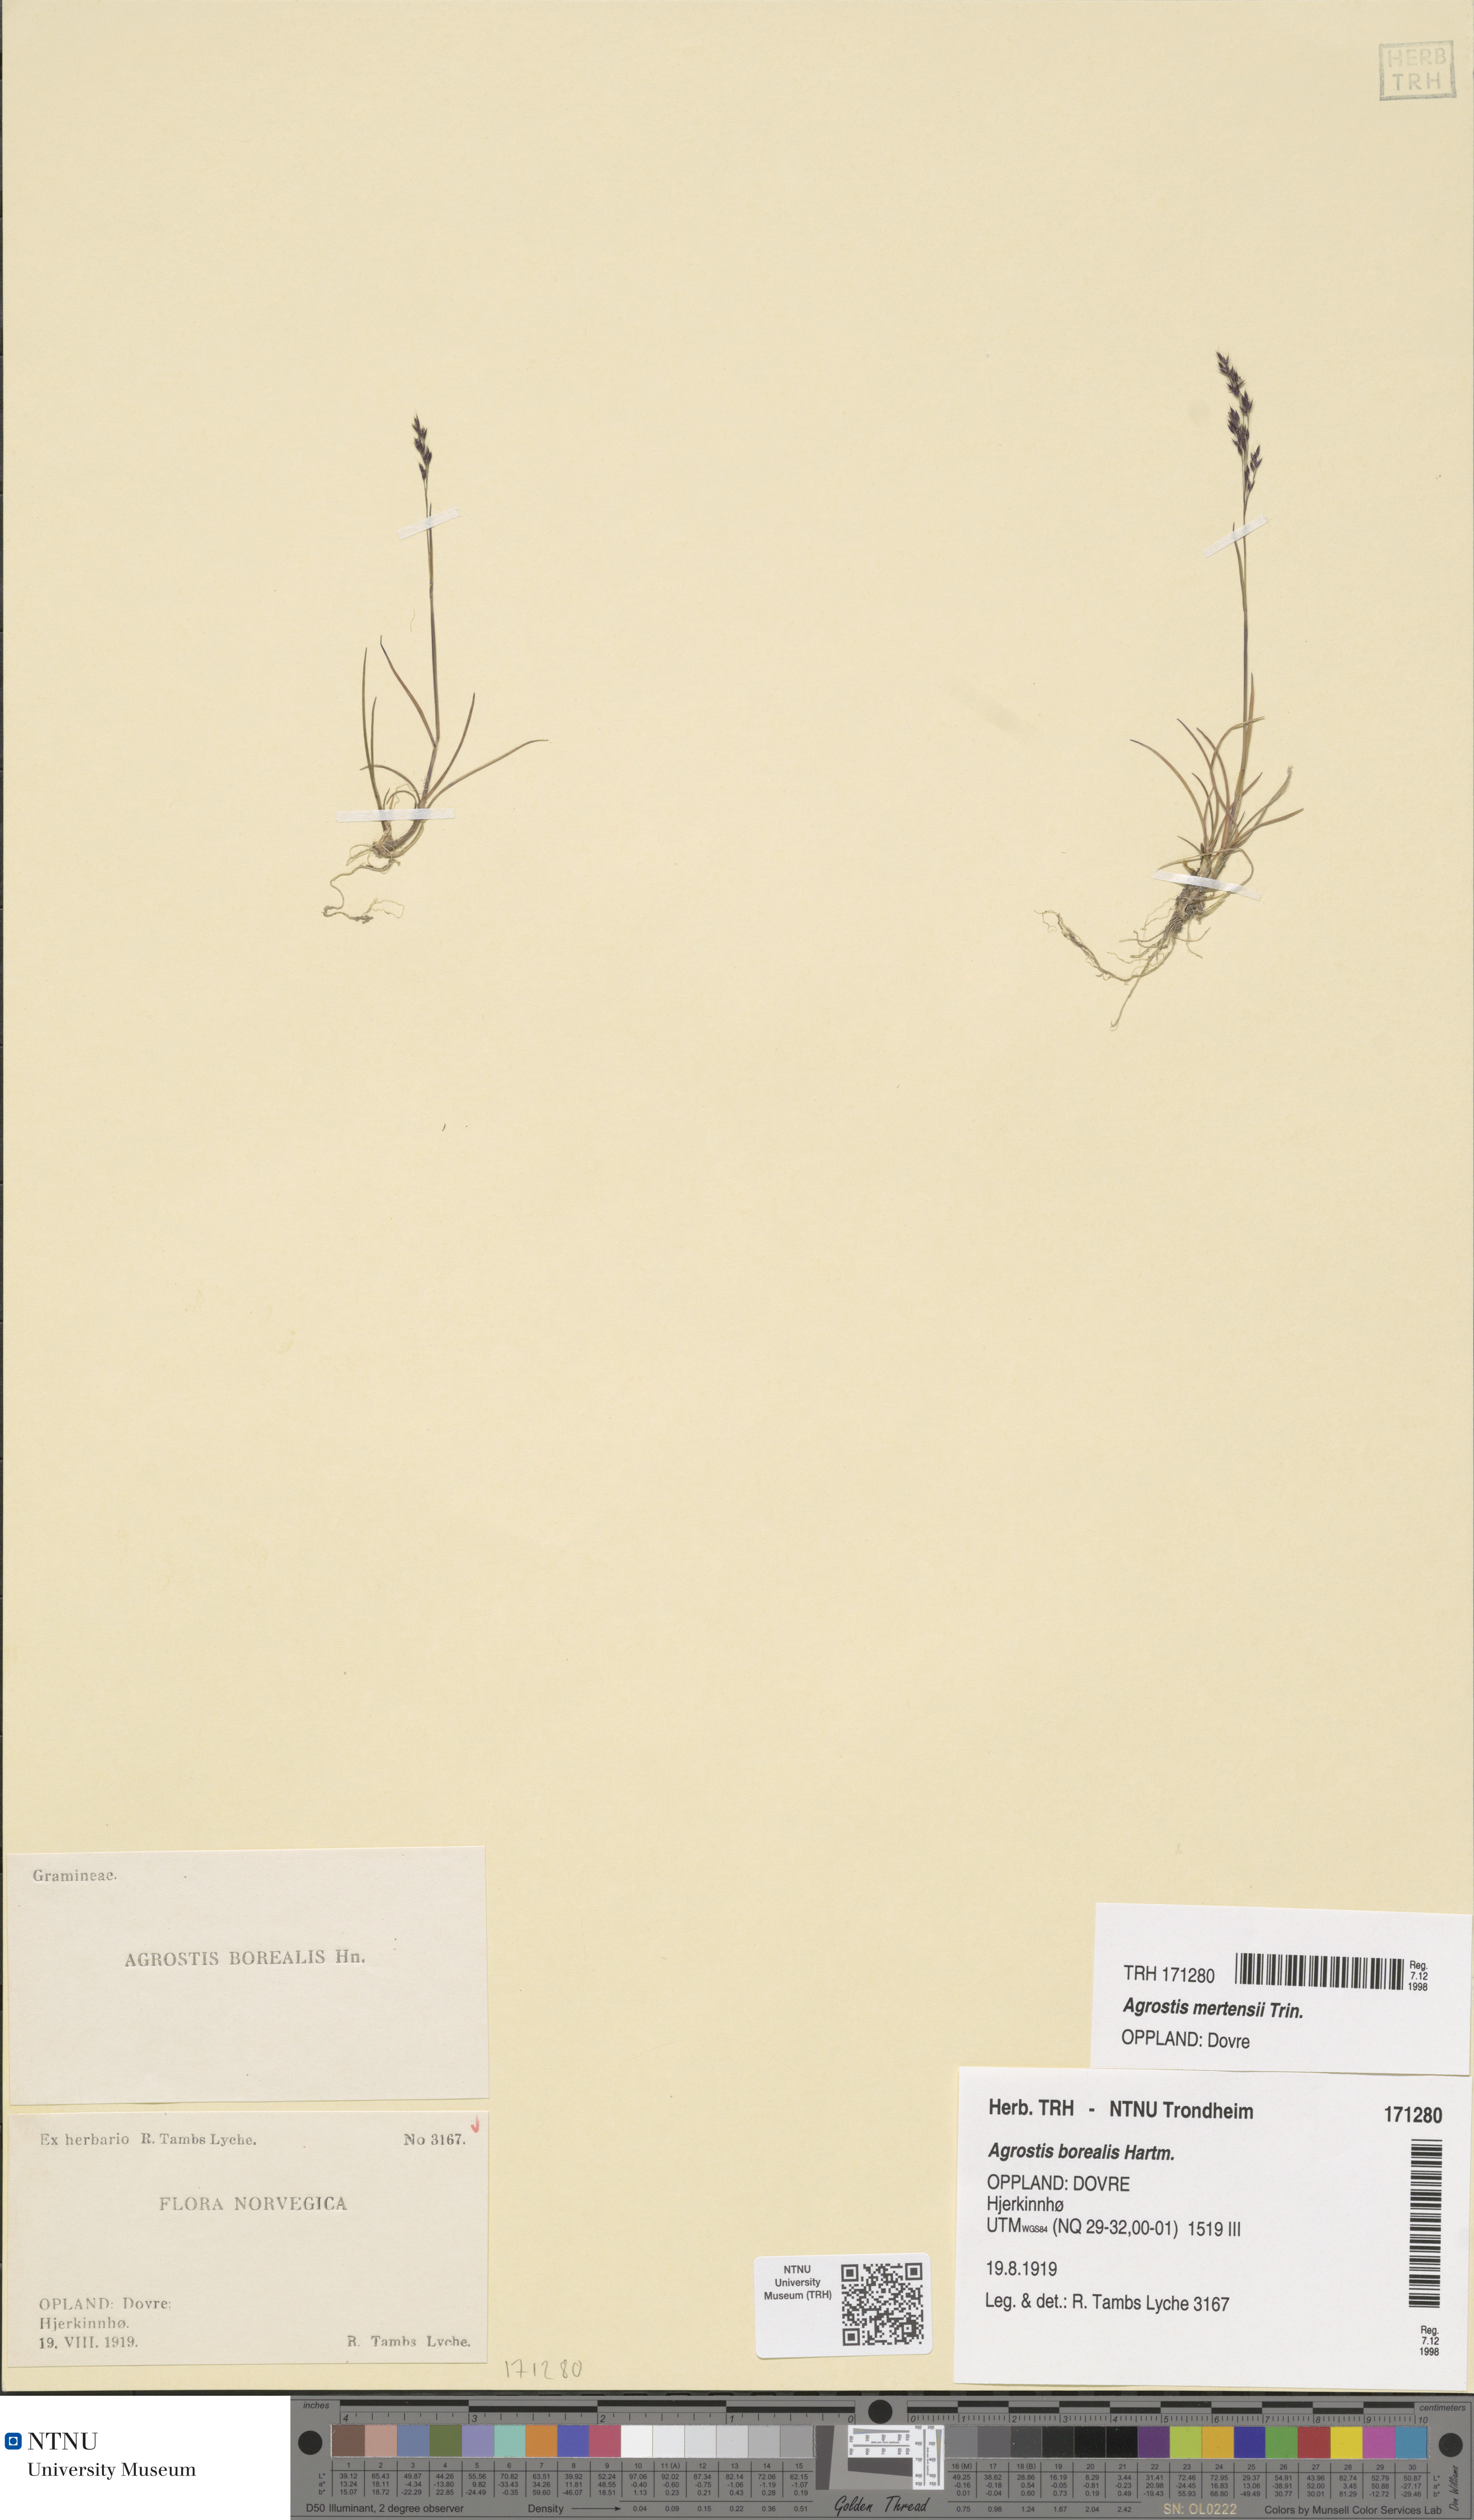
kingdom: Plantae
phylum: Tracheophyta
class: Liliopsida
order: Poales
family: Poaceae
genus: Agrostis
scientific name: Agrostis mertensii
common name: Northern bent
